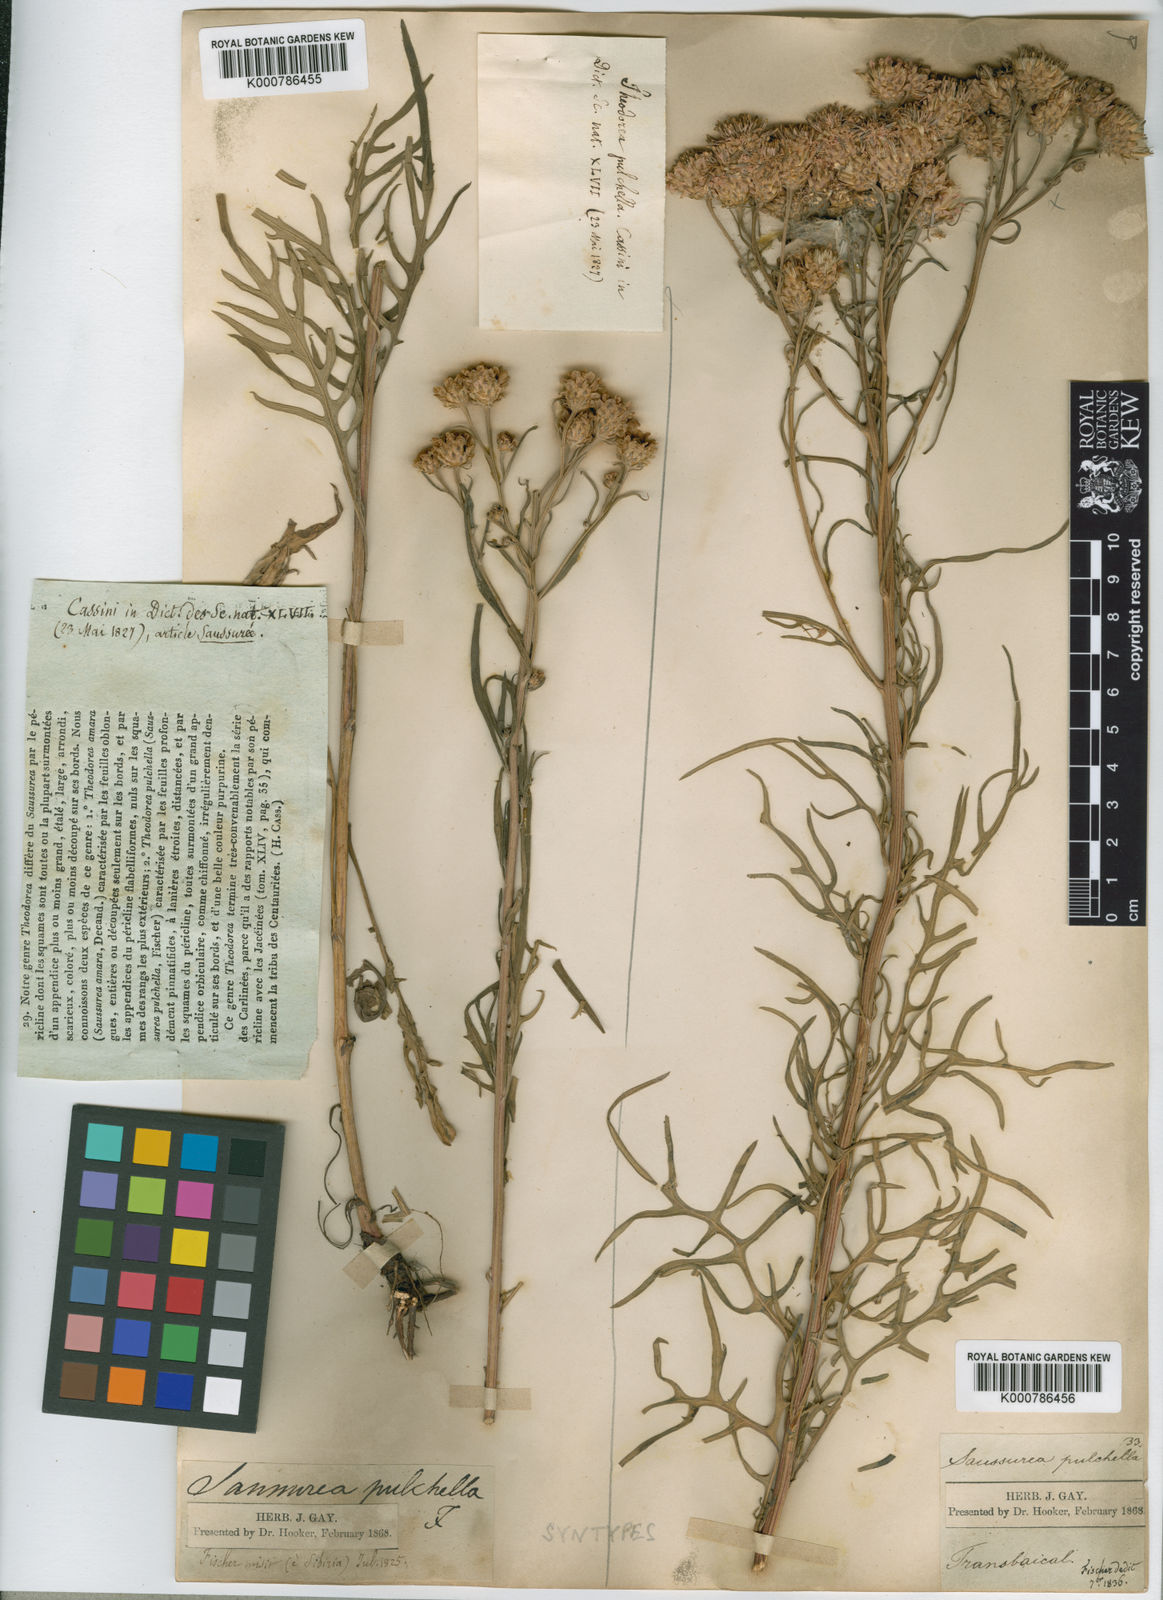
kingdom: Plantae
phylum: Tracheophyta
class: Magnoliopsida
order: Asterales
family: Asteraceae
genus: Saussurea
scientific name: Saussurea
